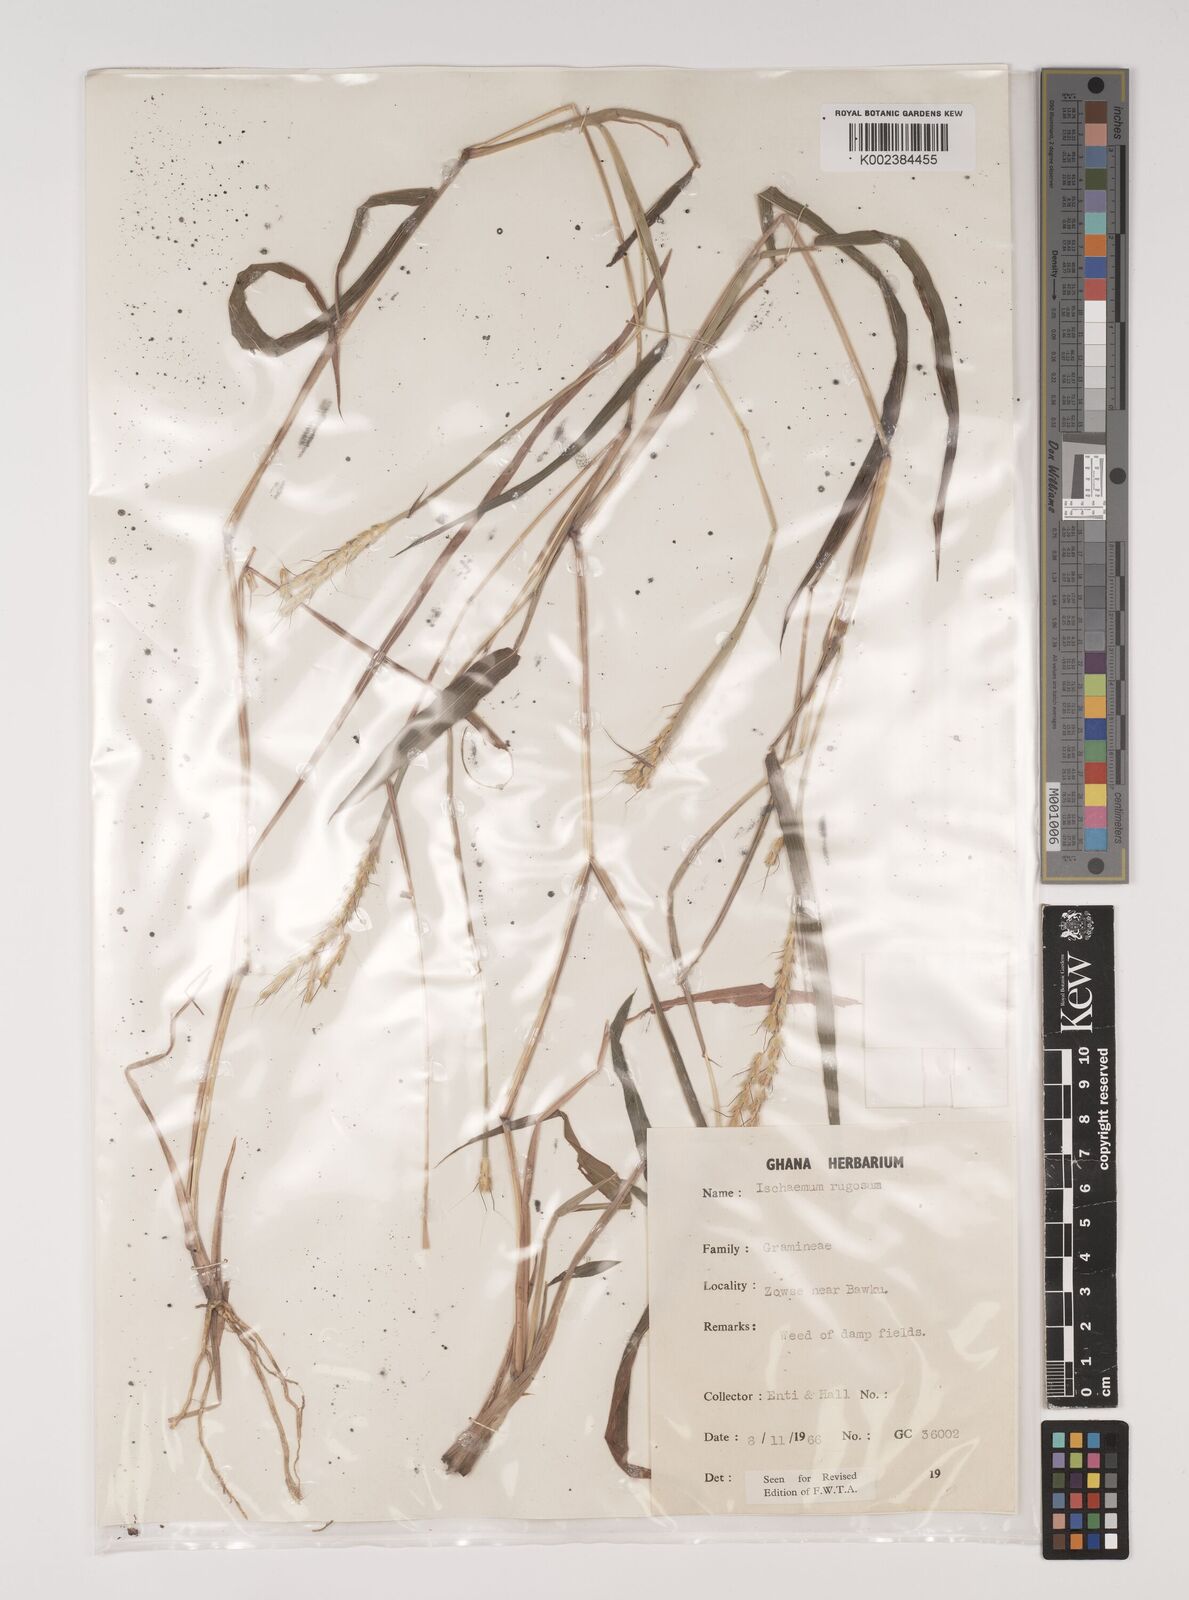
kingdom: Plantae
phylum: Tracheophyta
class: Liliopsida
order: Poales
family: Poaceae
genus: Ischaemum
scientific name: Ischaemum rugosum
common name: Saramatta grass
